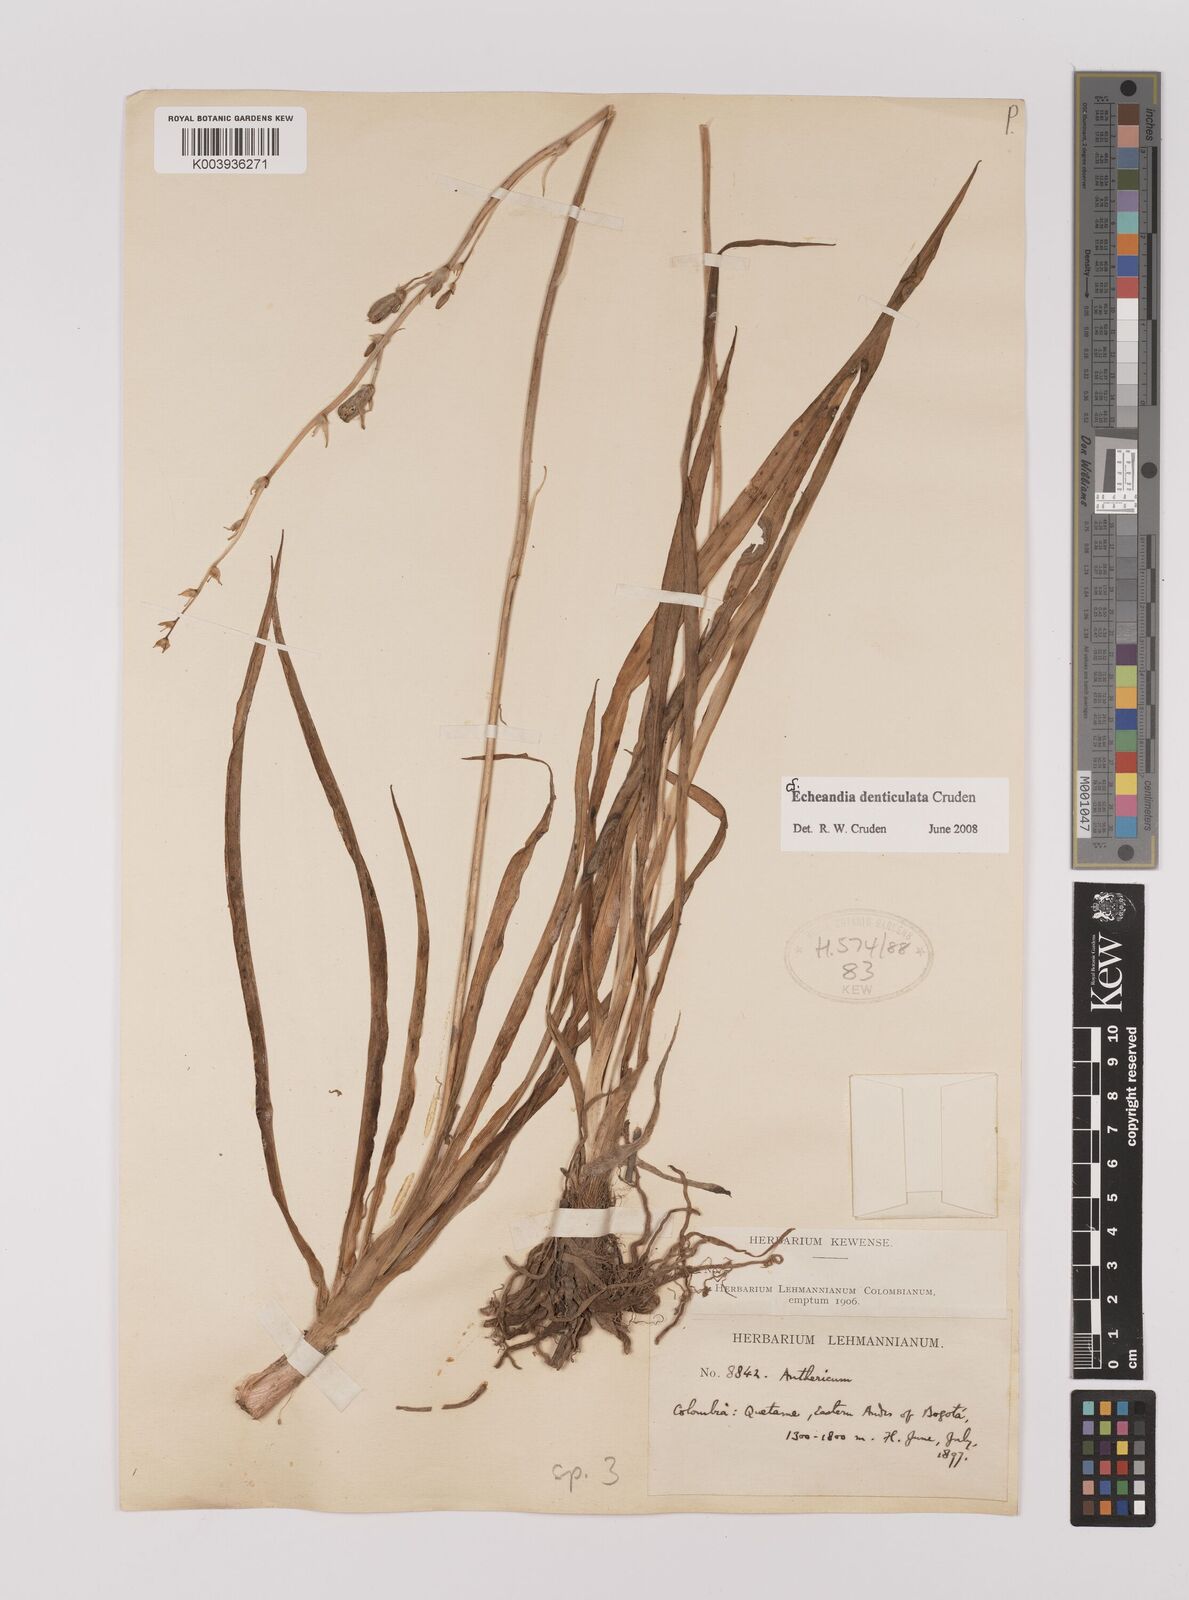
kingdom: Plantae
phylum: Tracheophyta
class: Liliopsida
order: Asparagales
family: Asparagaceae
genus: Echeandia
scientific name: Echeandia flavescens
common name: Amberlily
